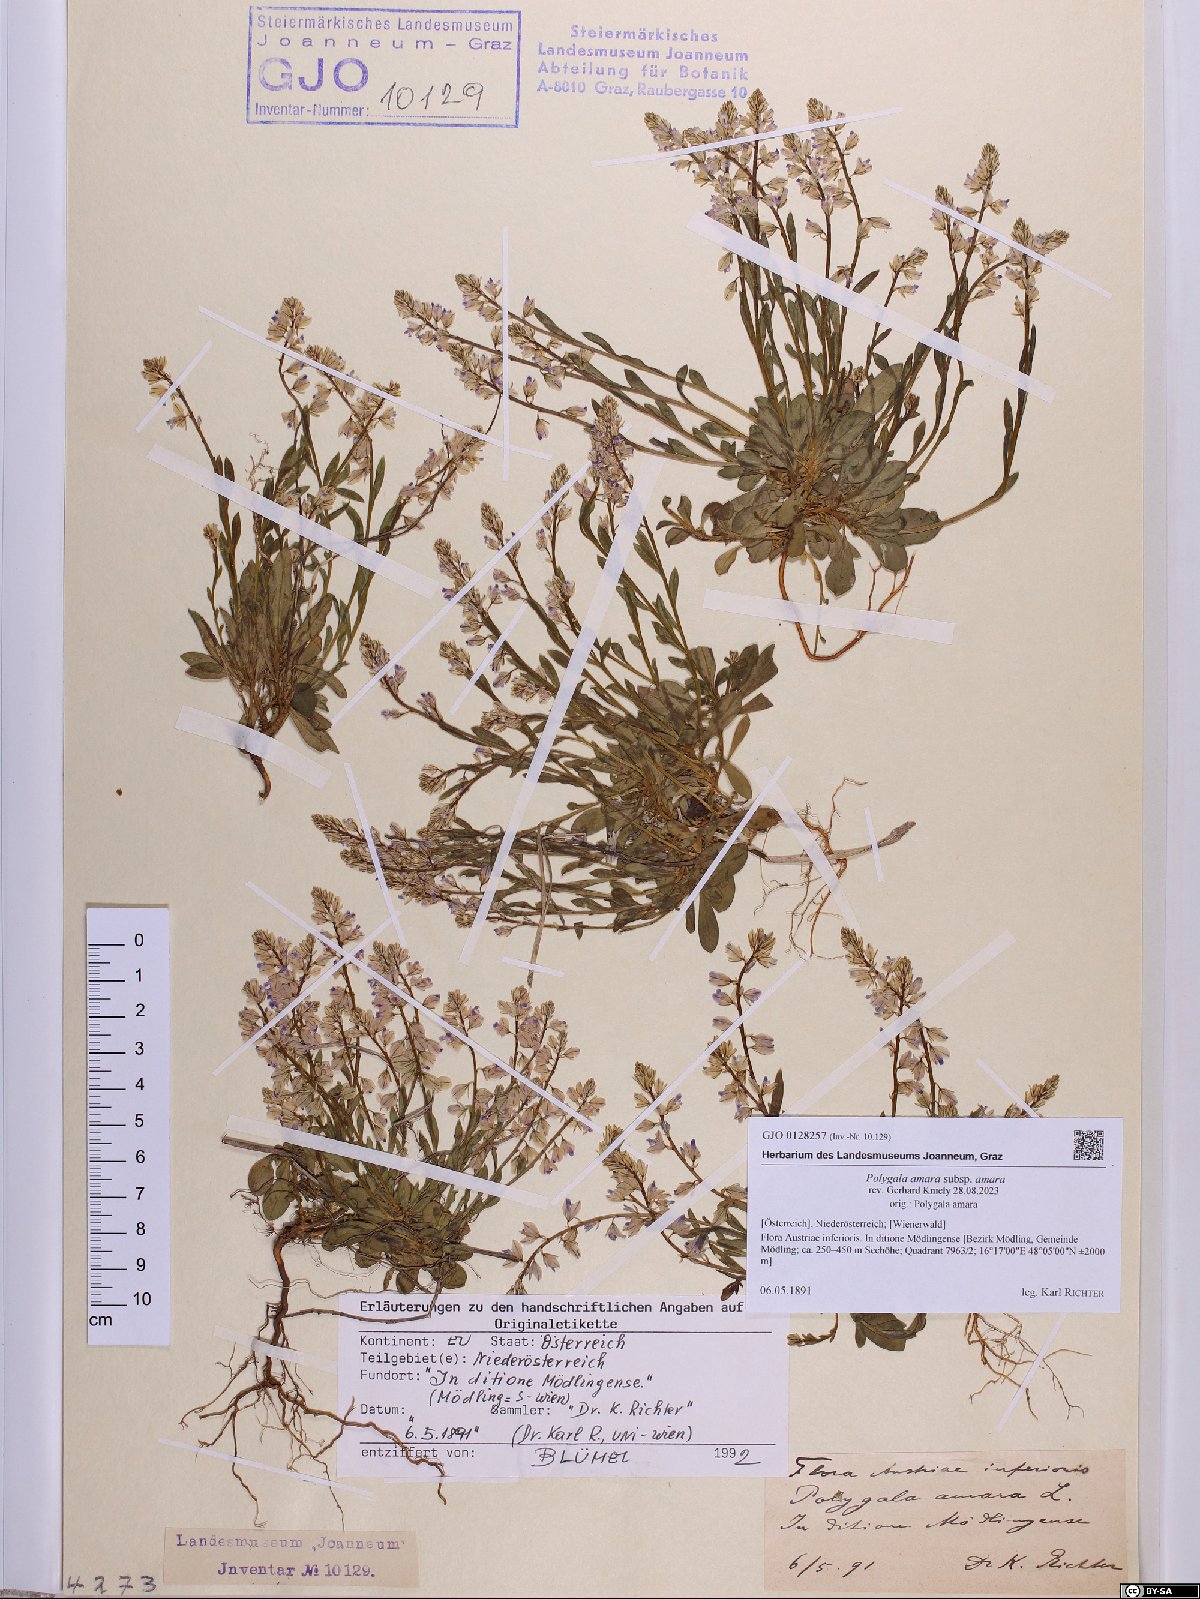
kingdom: Plantae
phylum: Tracheophyta
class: Magnoliopsida
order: Fabales
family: Polygalaceae
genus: Polygala
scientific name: Polygala amara
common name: Milkwort
